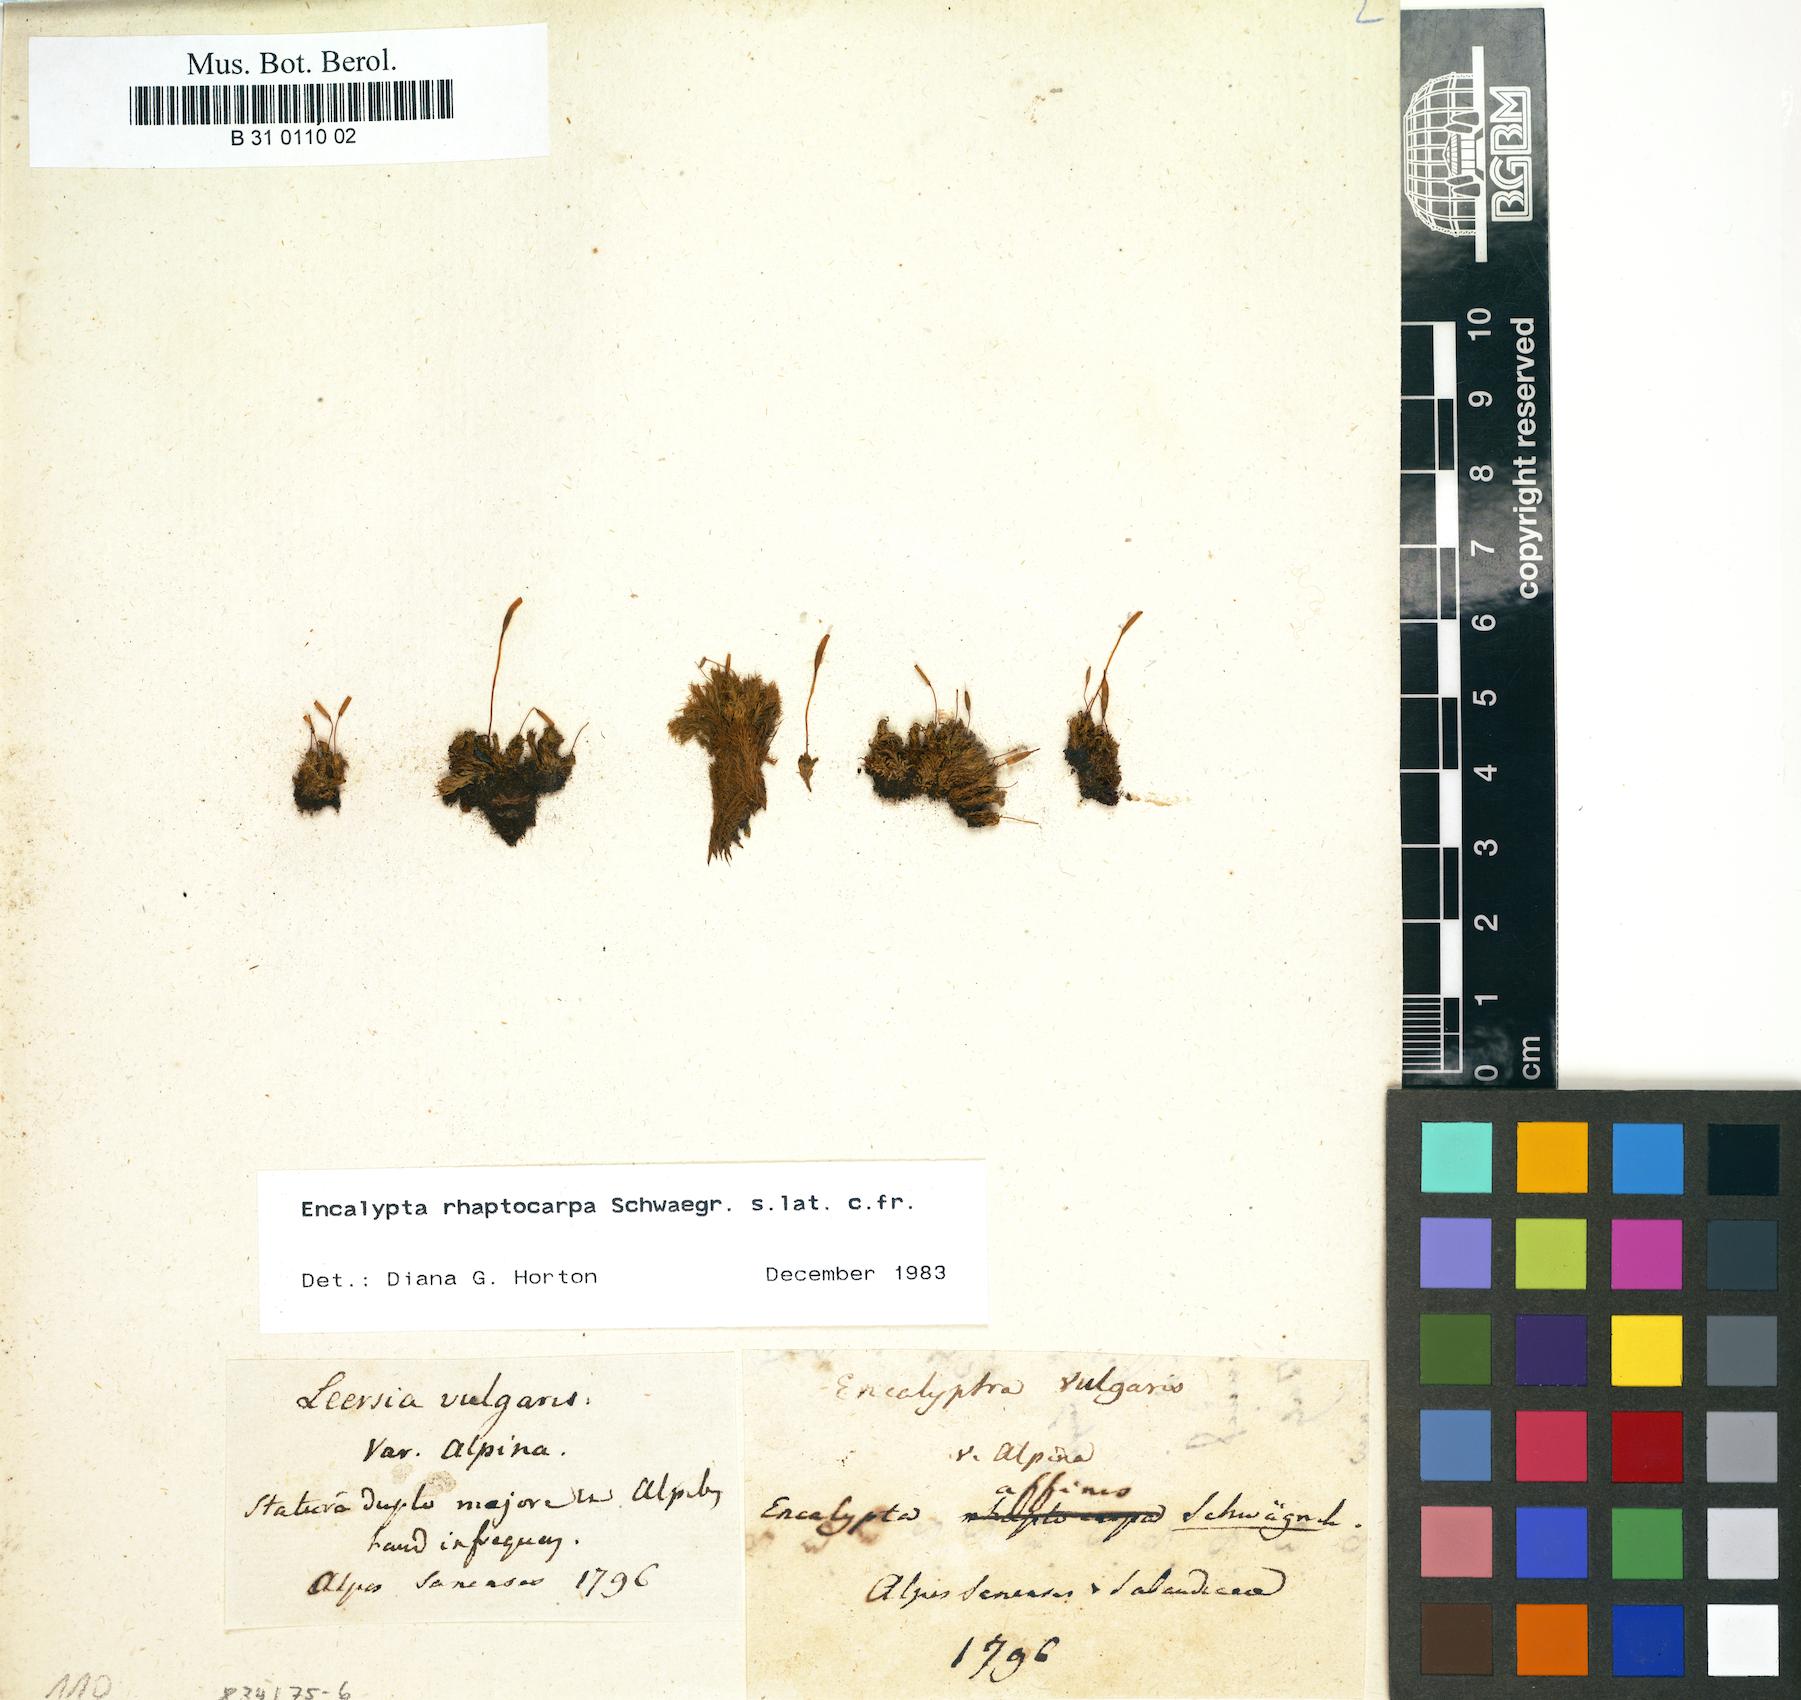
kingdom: Plantae
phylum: Bryophyta
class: Bryopsida
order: Encalyptales
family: Encalyptaceae
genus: Encalypta
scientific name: Encalypta affinis
